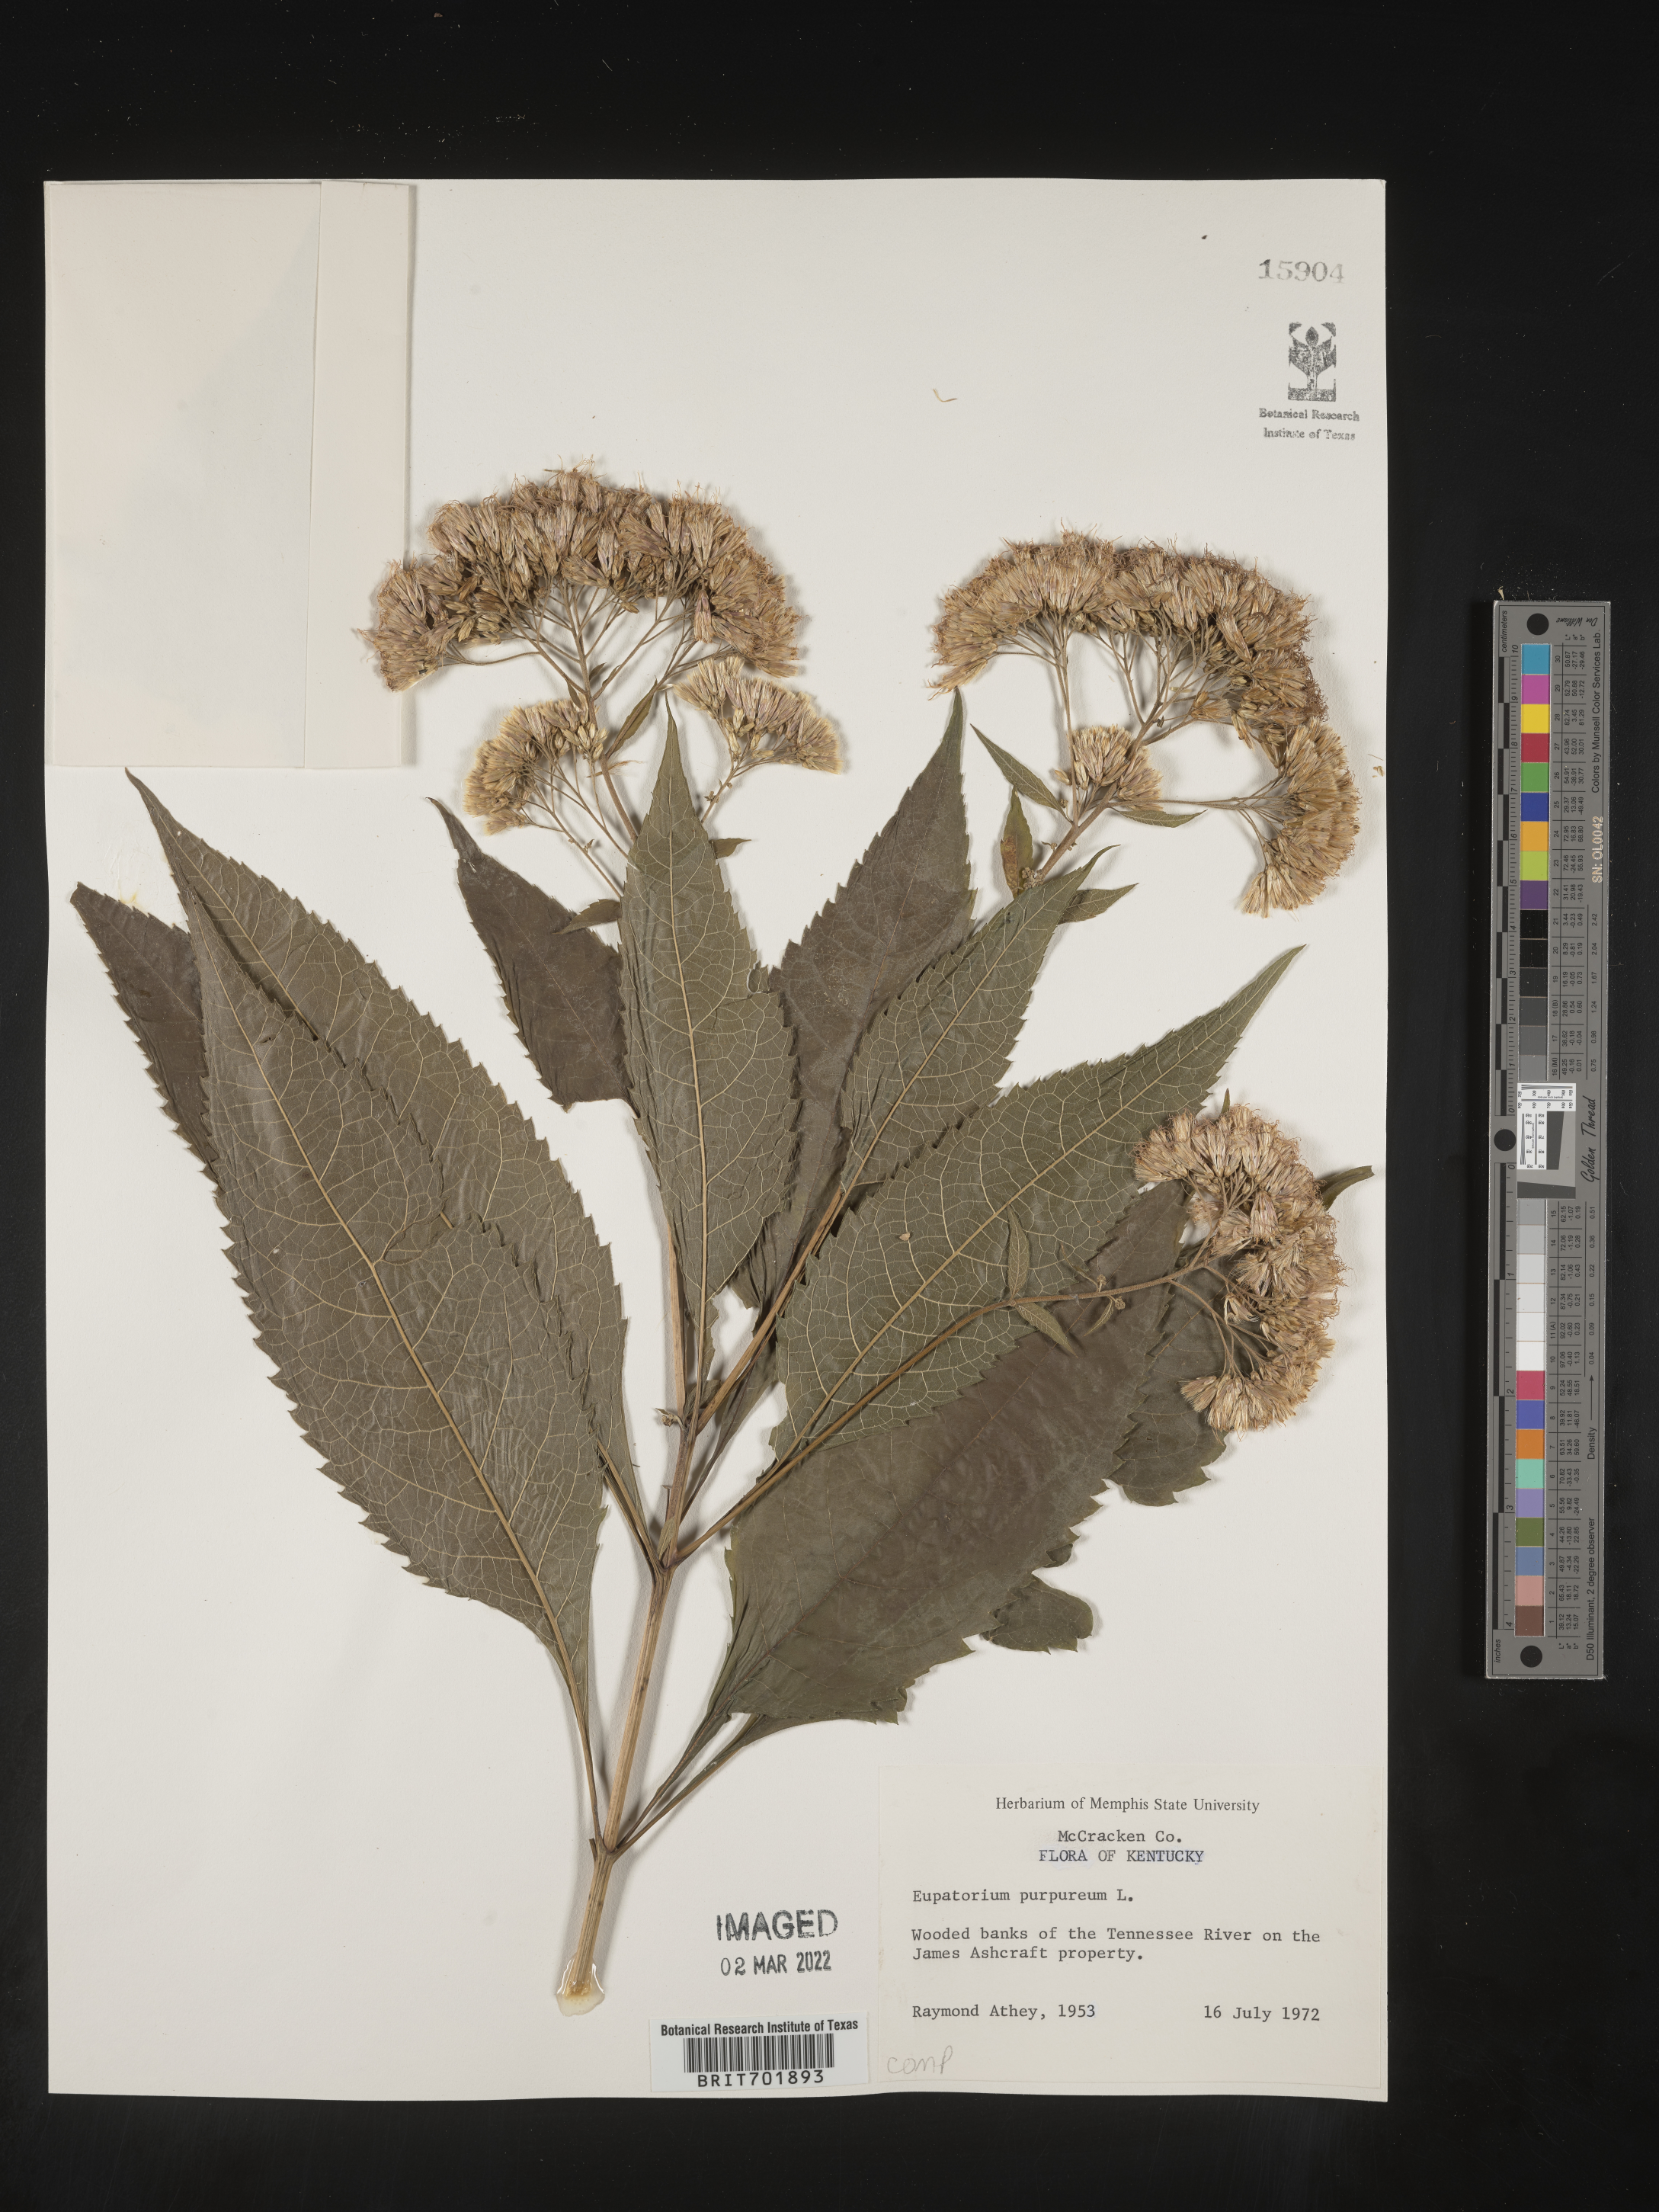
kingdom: Plantae
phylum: Tracheophyta
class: Magnoliopsida
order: Asterales
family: Asteraceae
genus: Eupatorium
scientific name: Eupatorium quaternum
